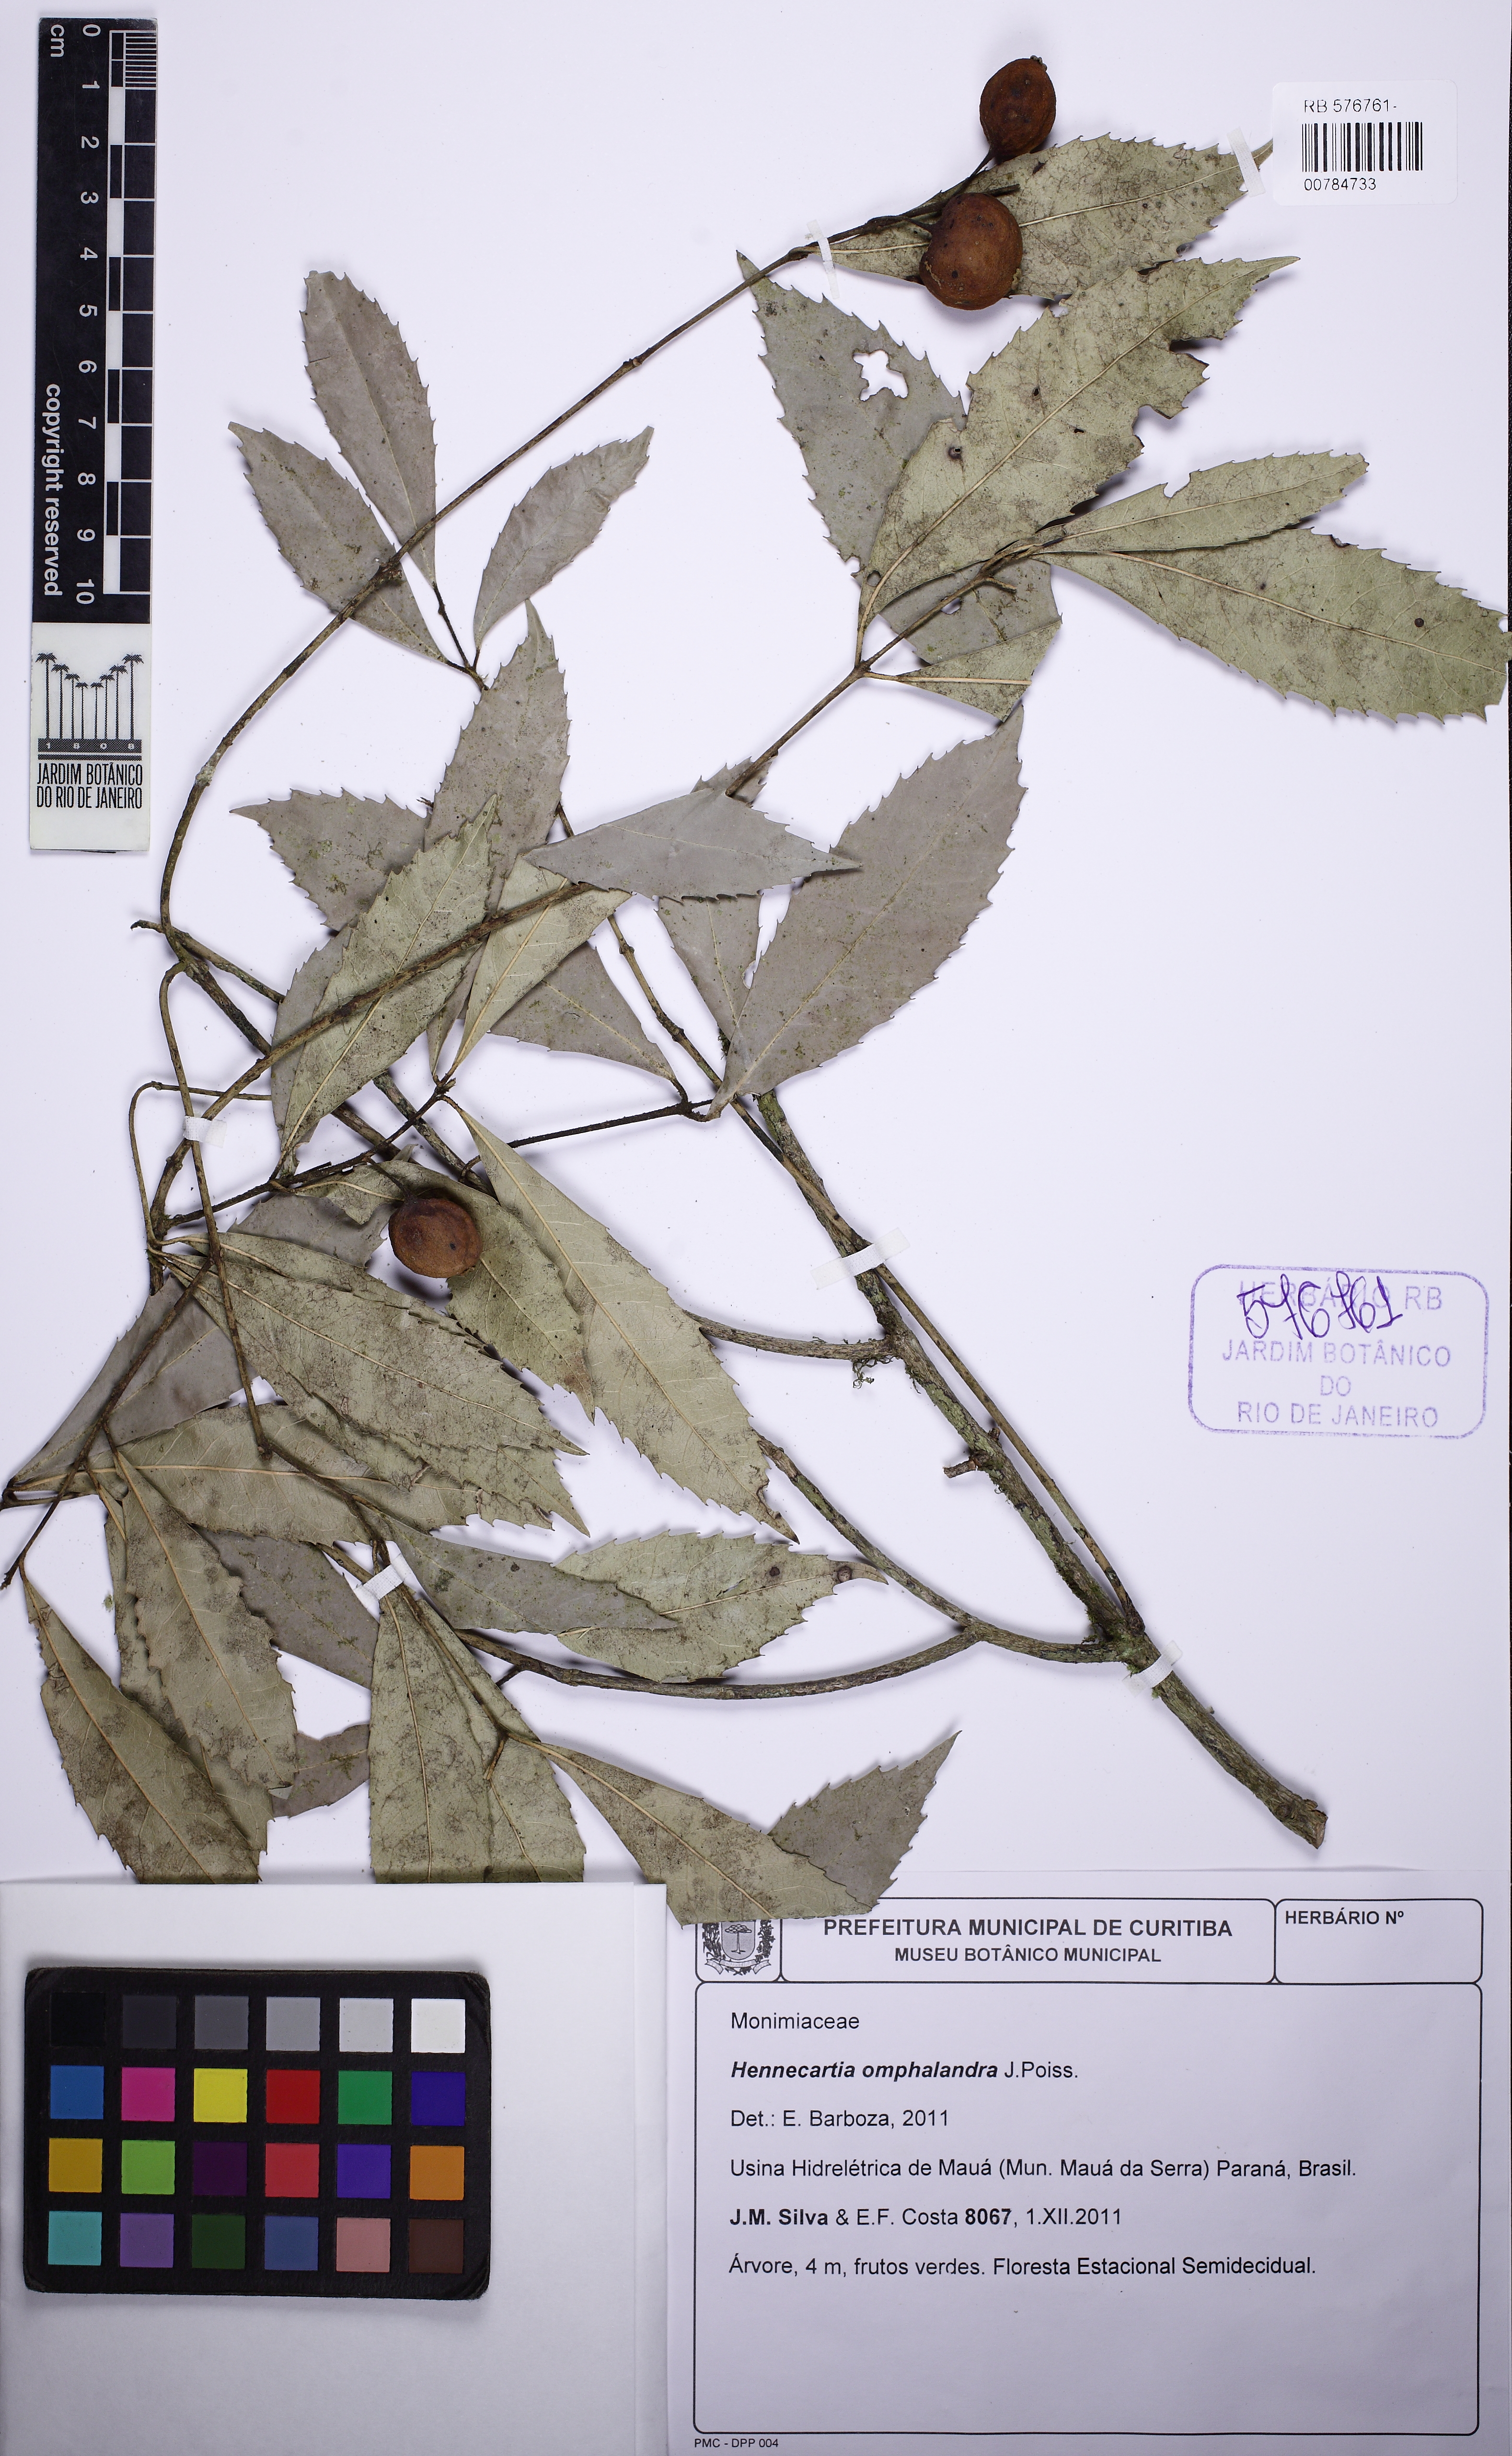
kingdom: Plantae
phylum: Tracheophyta
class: Magnoliopsida
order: Laurales
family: Monimiaceae
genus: Hennecartia
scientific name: Hennecartia omphalandra
